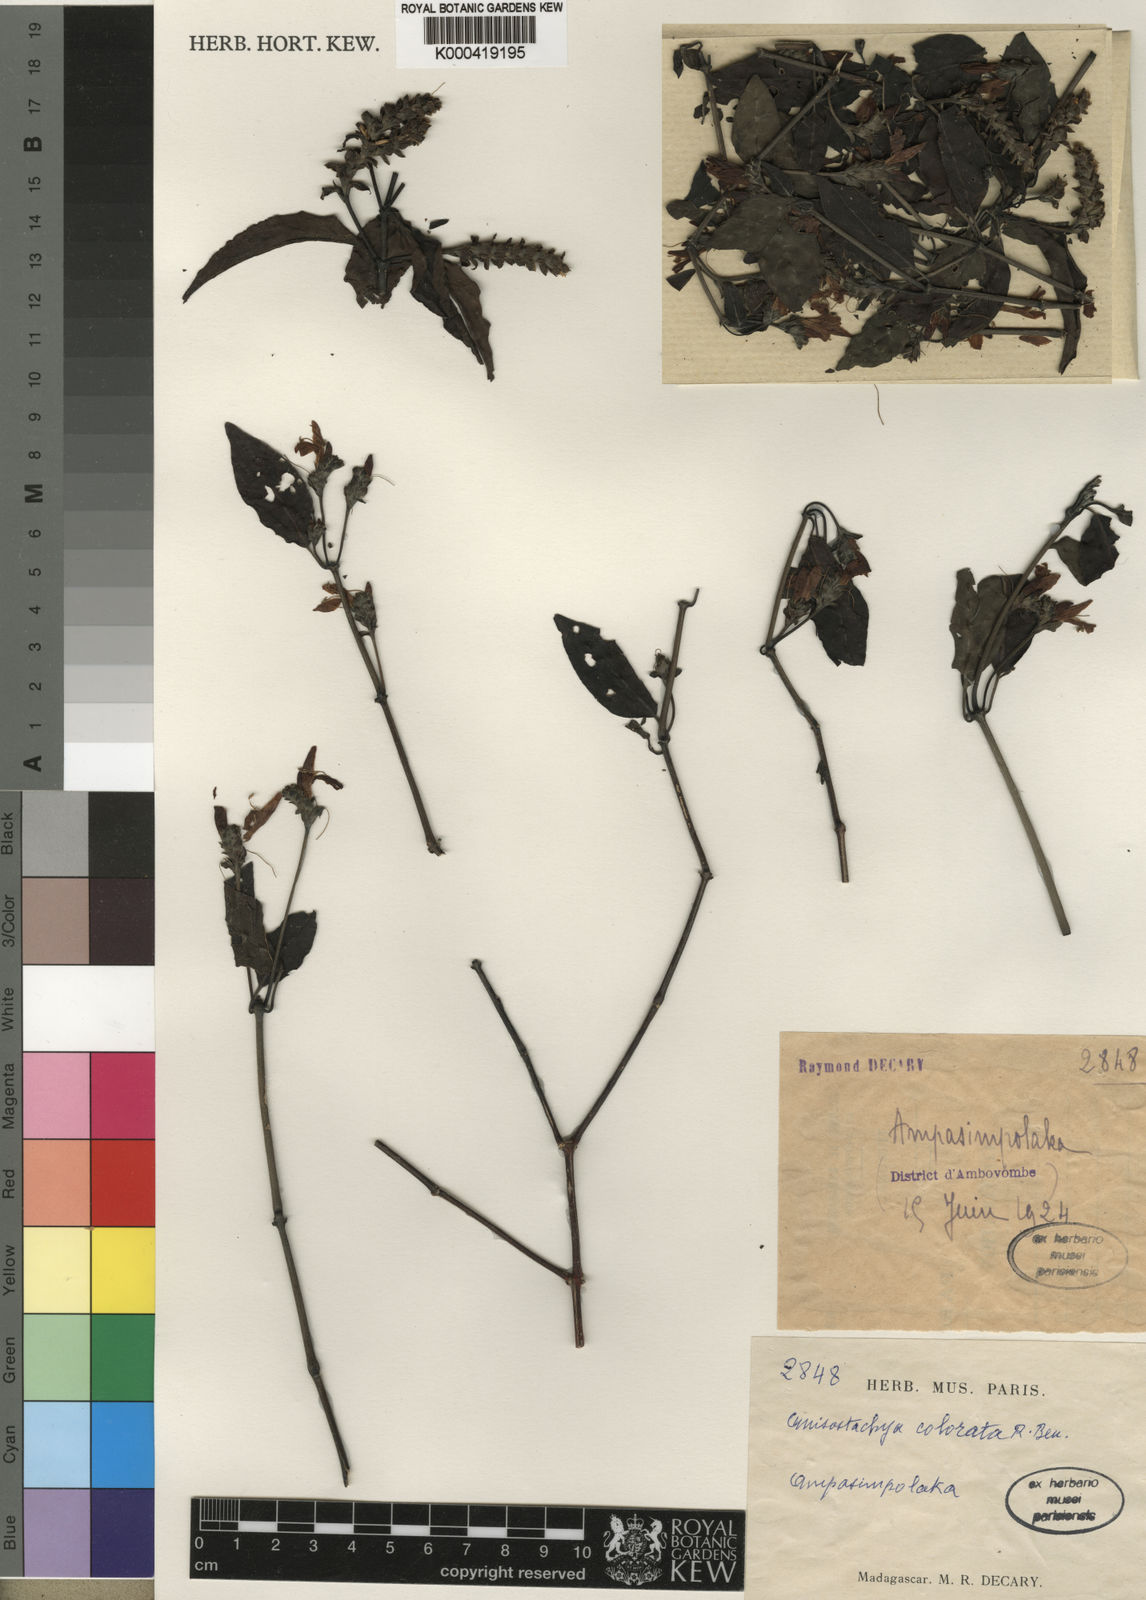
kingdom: Plantae
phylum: Tracheophyta
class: Magnoliopsida
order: Lamiales
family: Acanthaceae
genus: Justicia
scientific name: Justicia colorata
